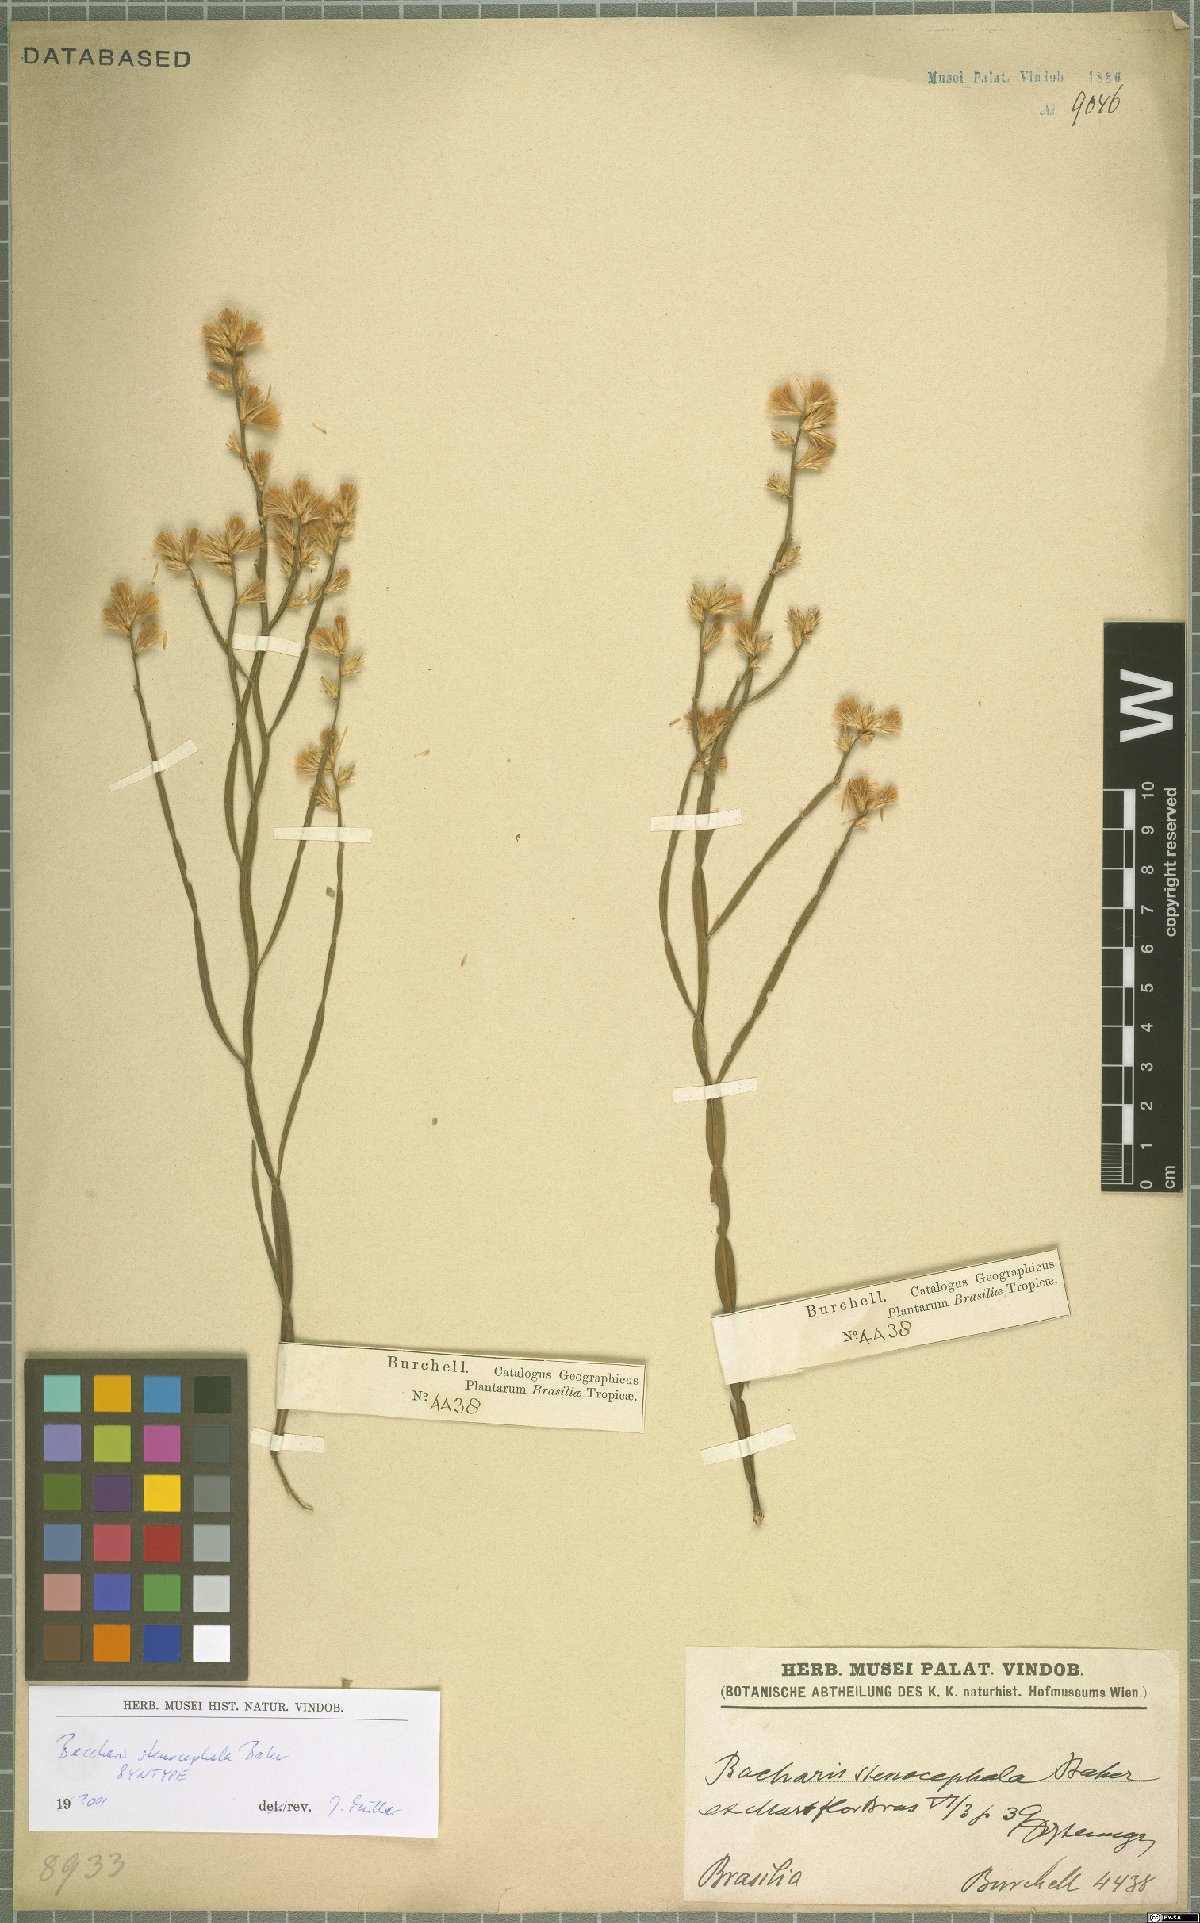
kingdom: Plantae
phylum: Tracheophyta
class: Magnoliopsida
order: Asterales
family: Asteraceae
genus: Baccharis
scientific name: Baccharis stenocephala
